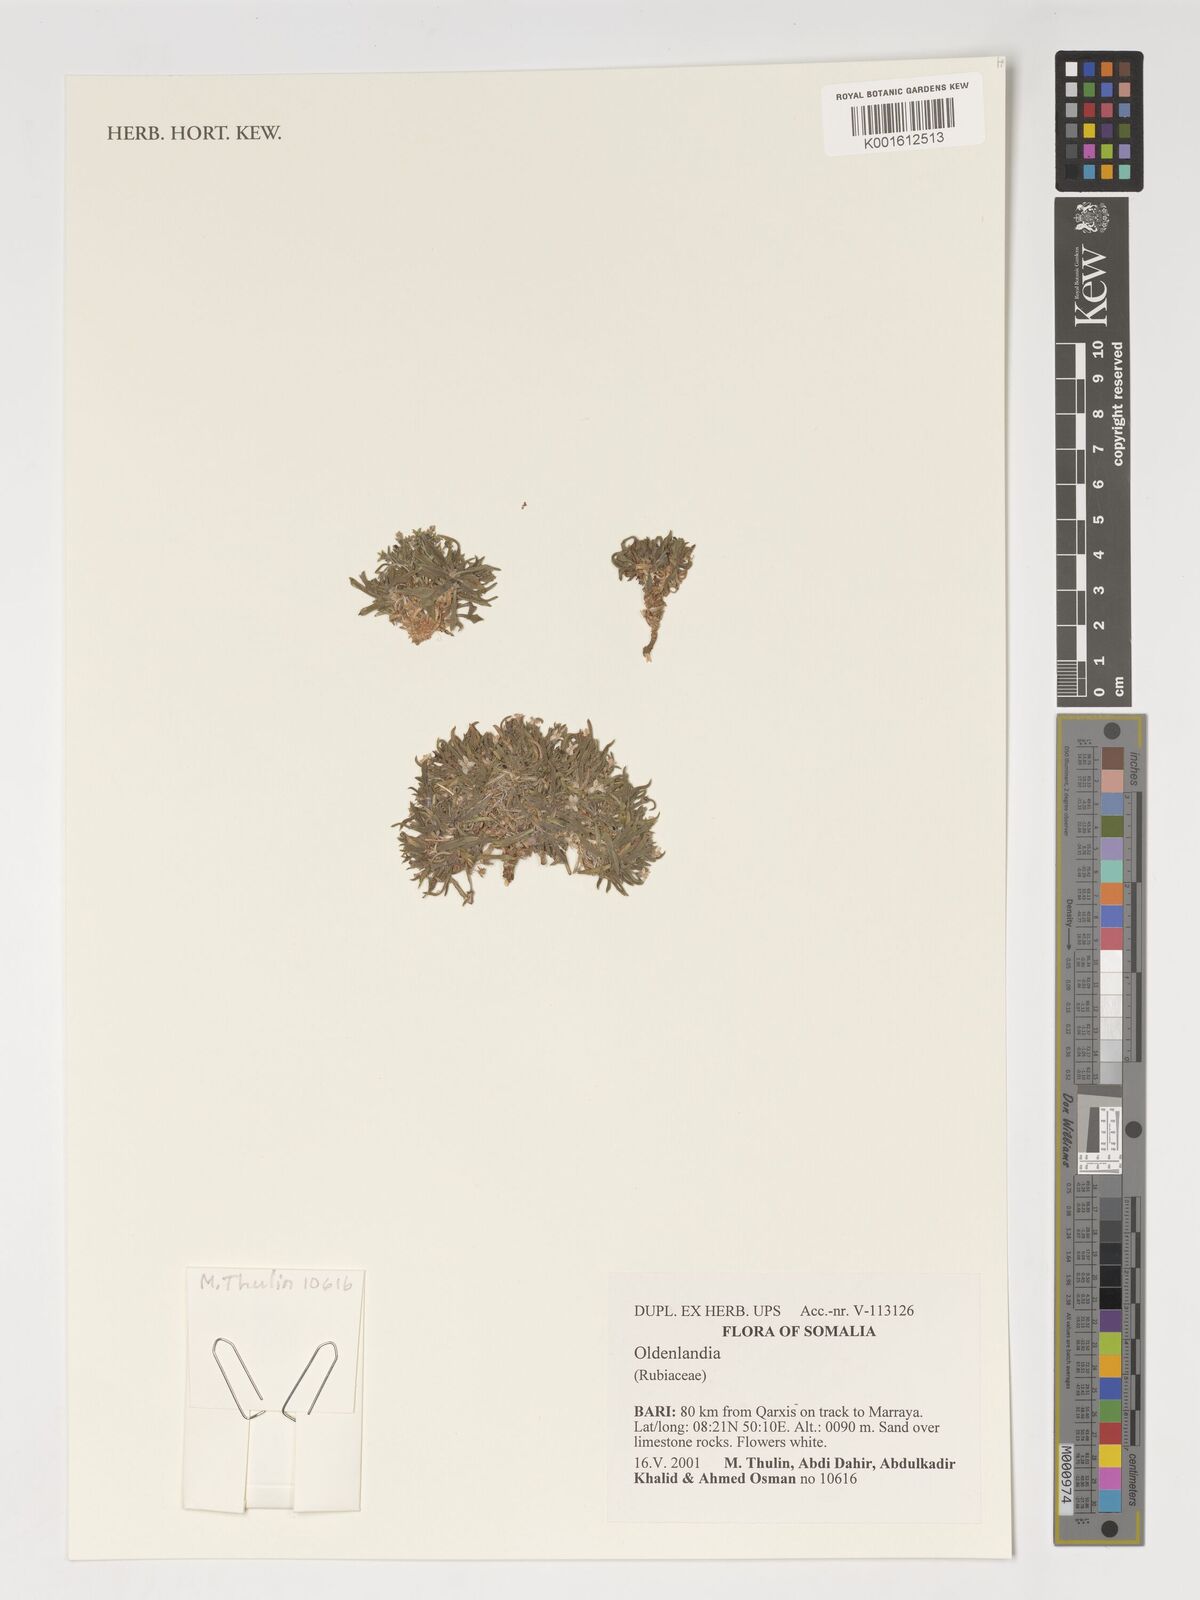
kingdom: Plantae
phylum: Tracheophyta
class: Magnoliopsida
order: Gentianales
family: Rubiaceae
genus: Oldenlandia
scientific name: Oldenlandia
